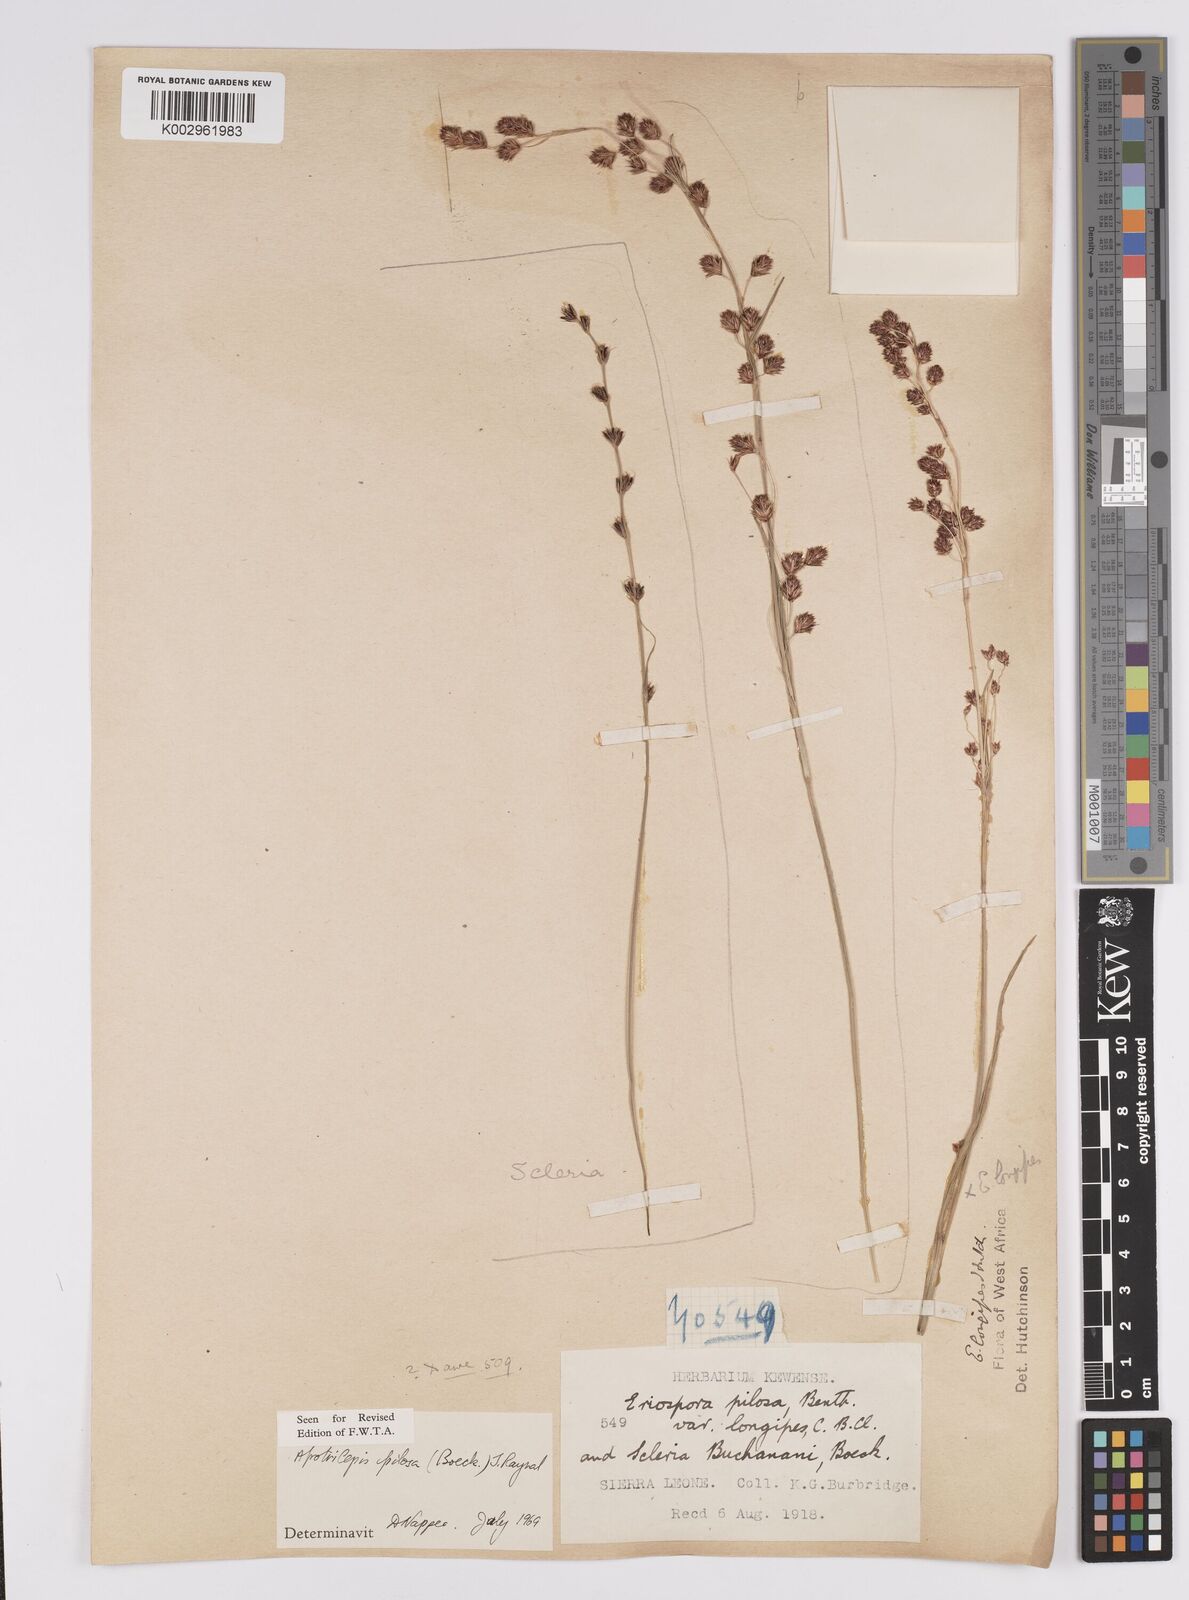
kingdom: Plantae
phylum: Tracheophyta
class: Liliopsida
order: Poales
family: Cyperaceae
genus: Afrotrilepis
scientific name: Afrotrilepis pilosa
